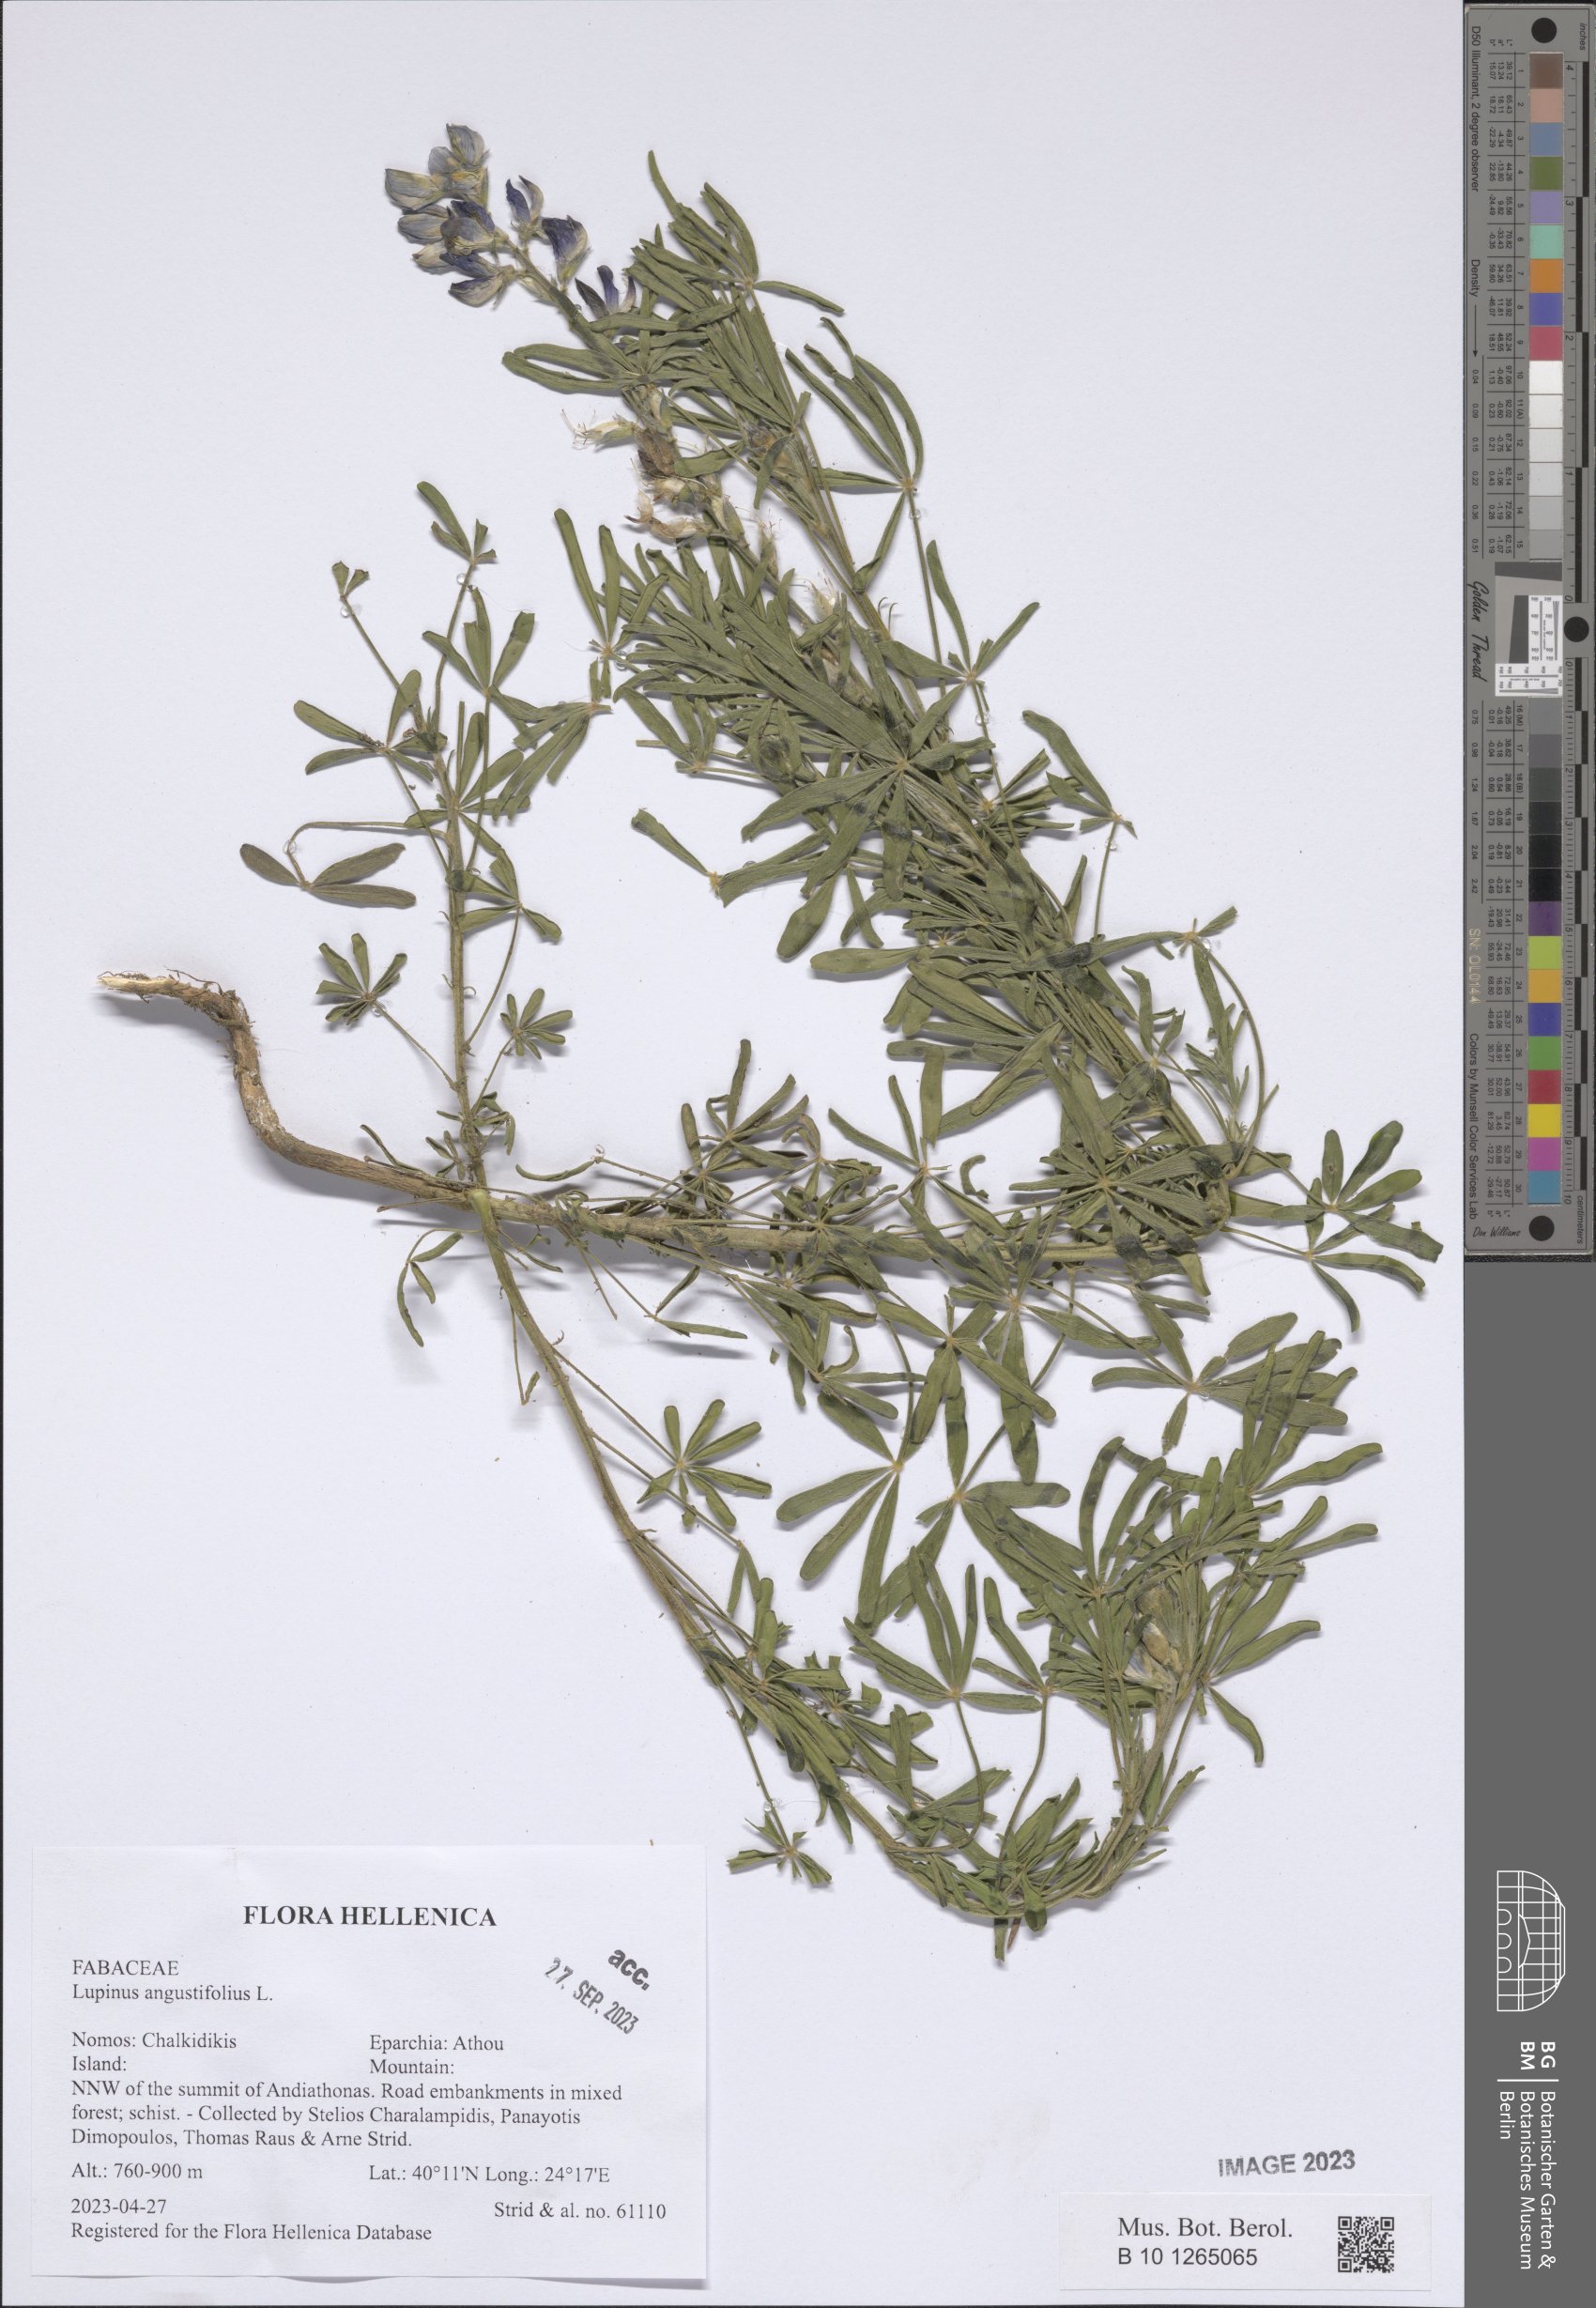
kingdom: Plantae
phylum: Tracheophyta
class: Magnoliopsida
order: Fabales
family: Fabaceae
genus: Lupinus
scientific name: Lupinus angustifolius
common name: Narrow-leaved lupin
